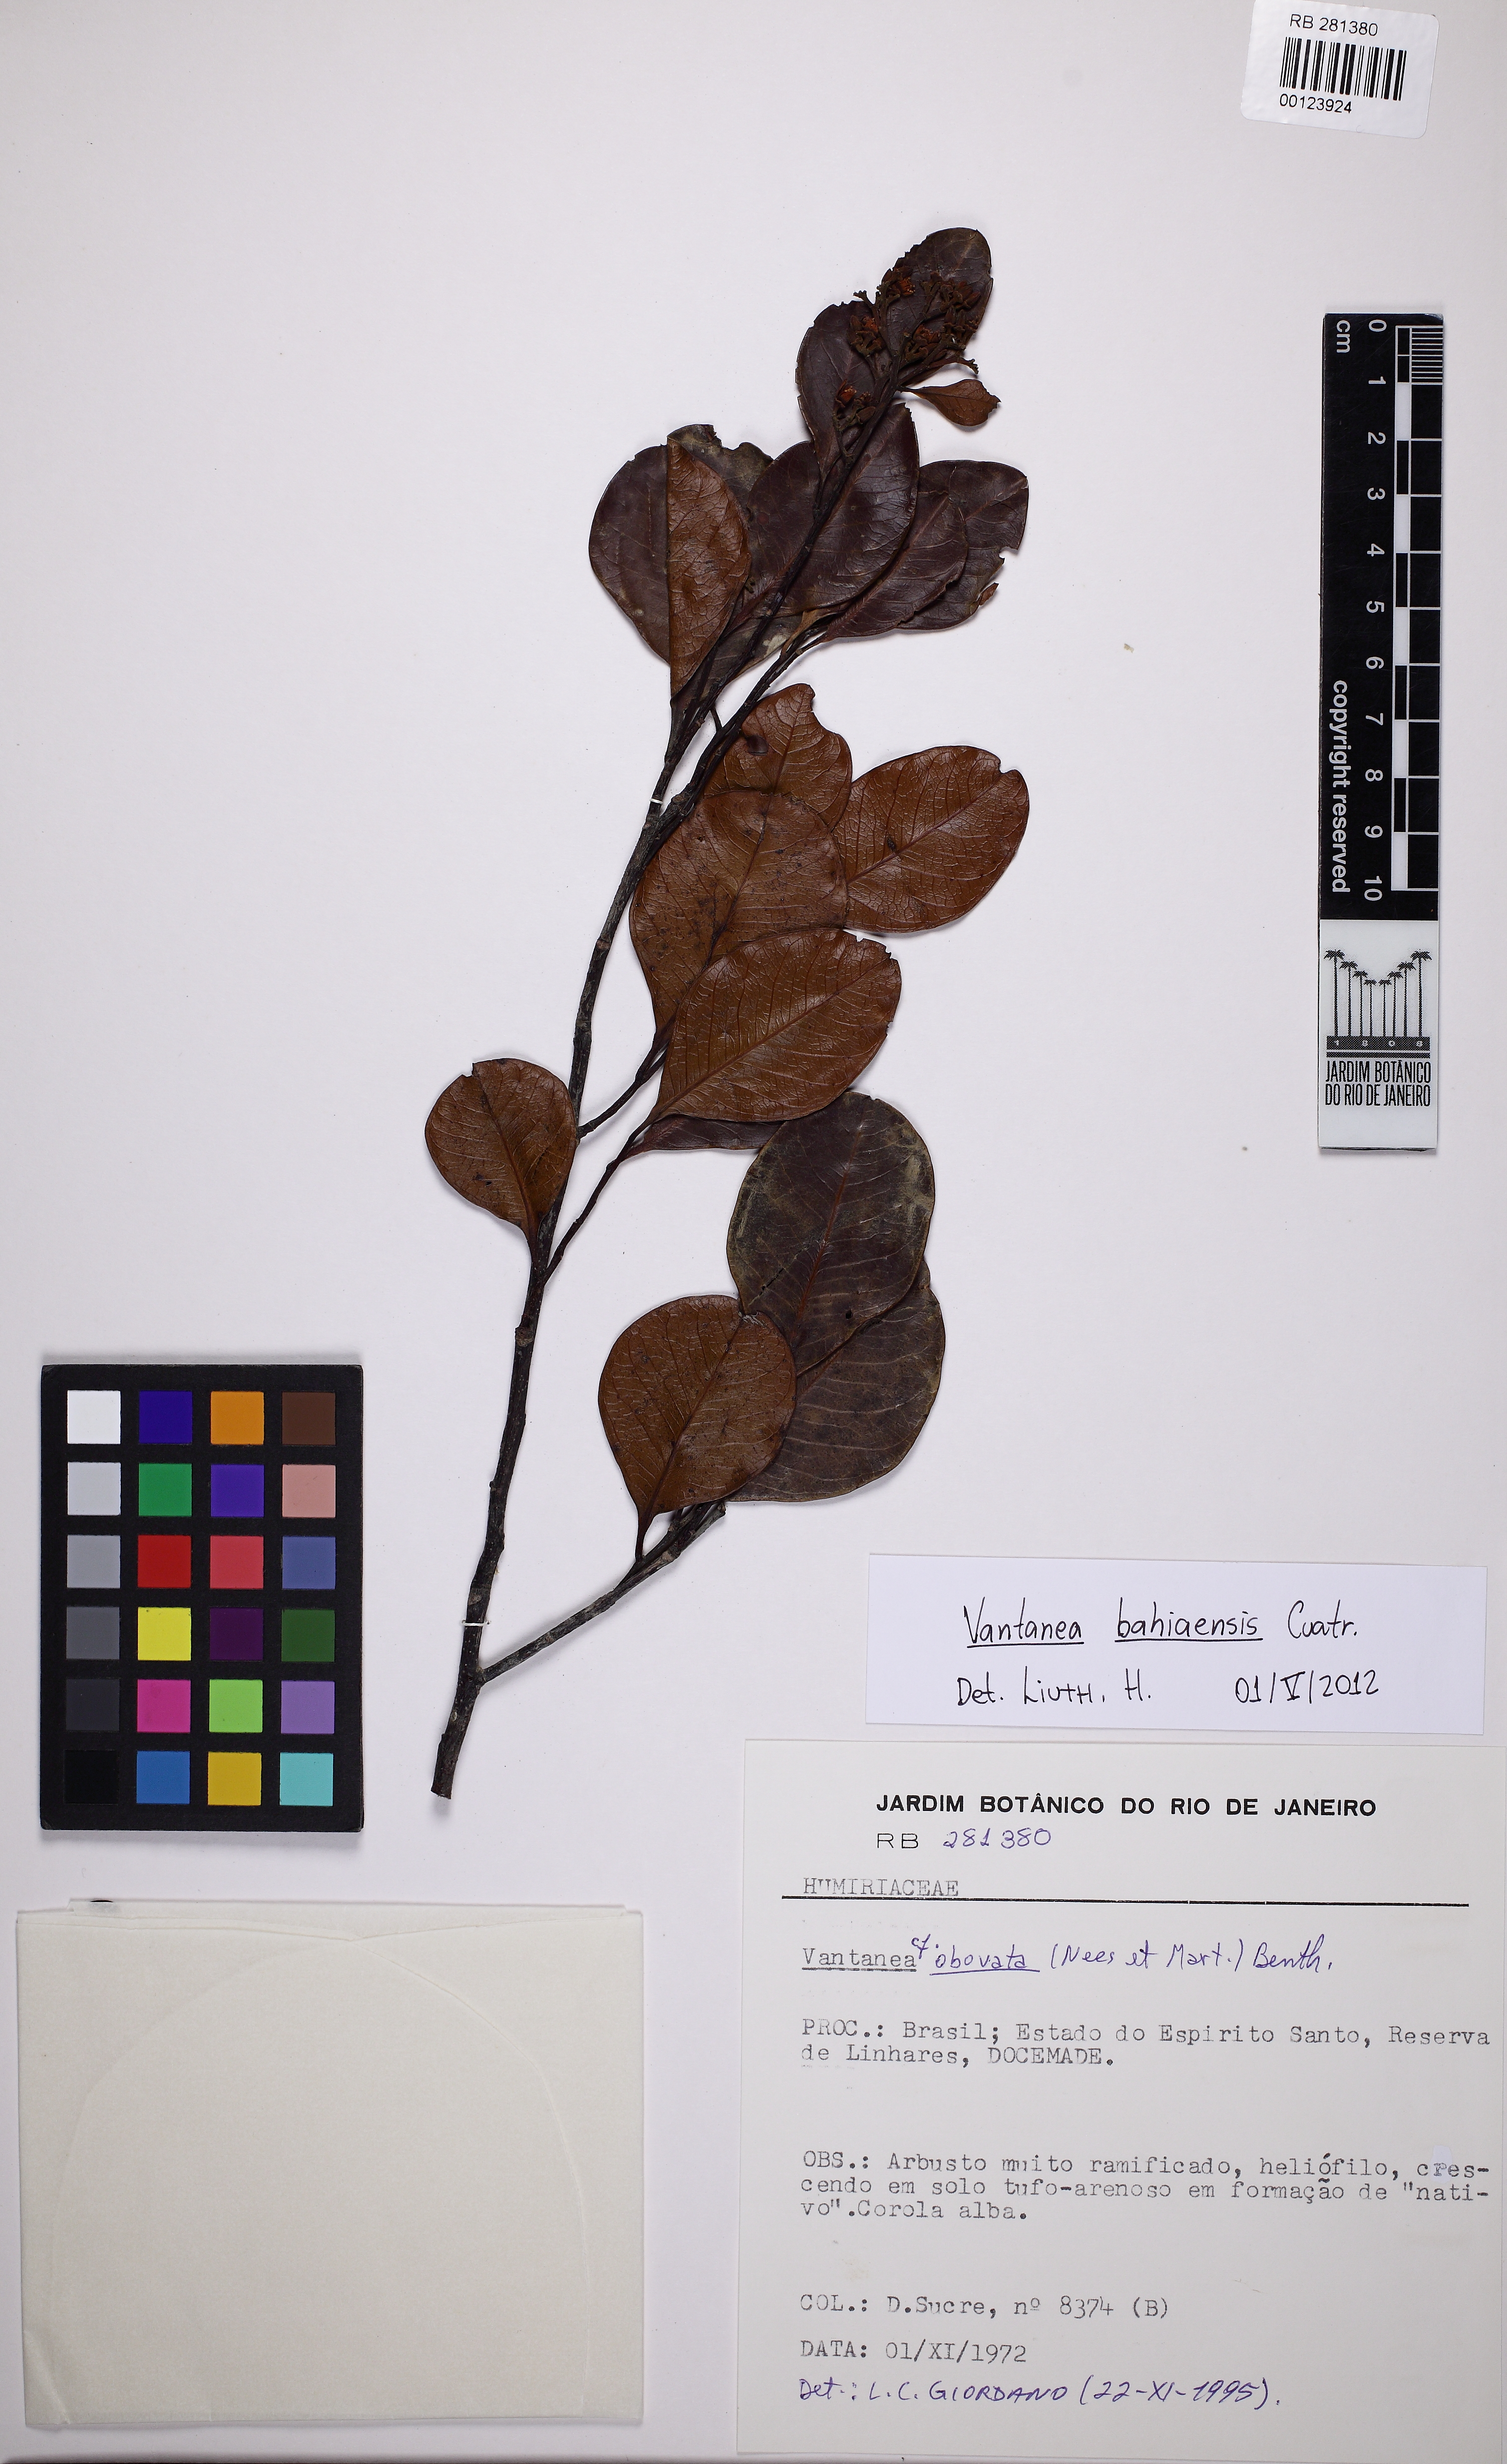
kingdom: Plantae
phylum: Tracheophyta
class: Magnoliopsida
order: Malpighiales
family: Humiriaceae
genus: Vantanea
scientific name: Vantanea bahiaensis
